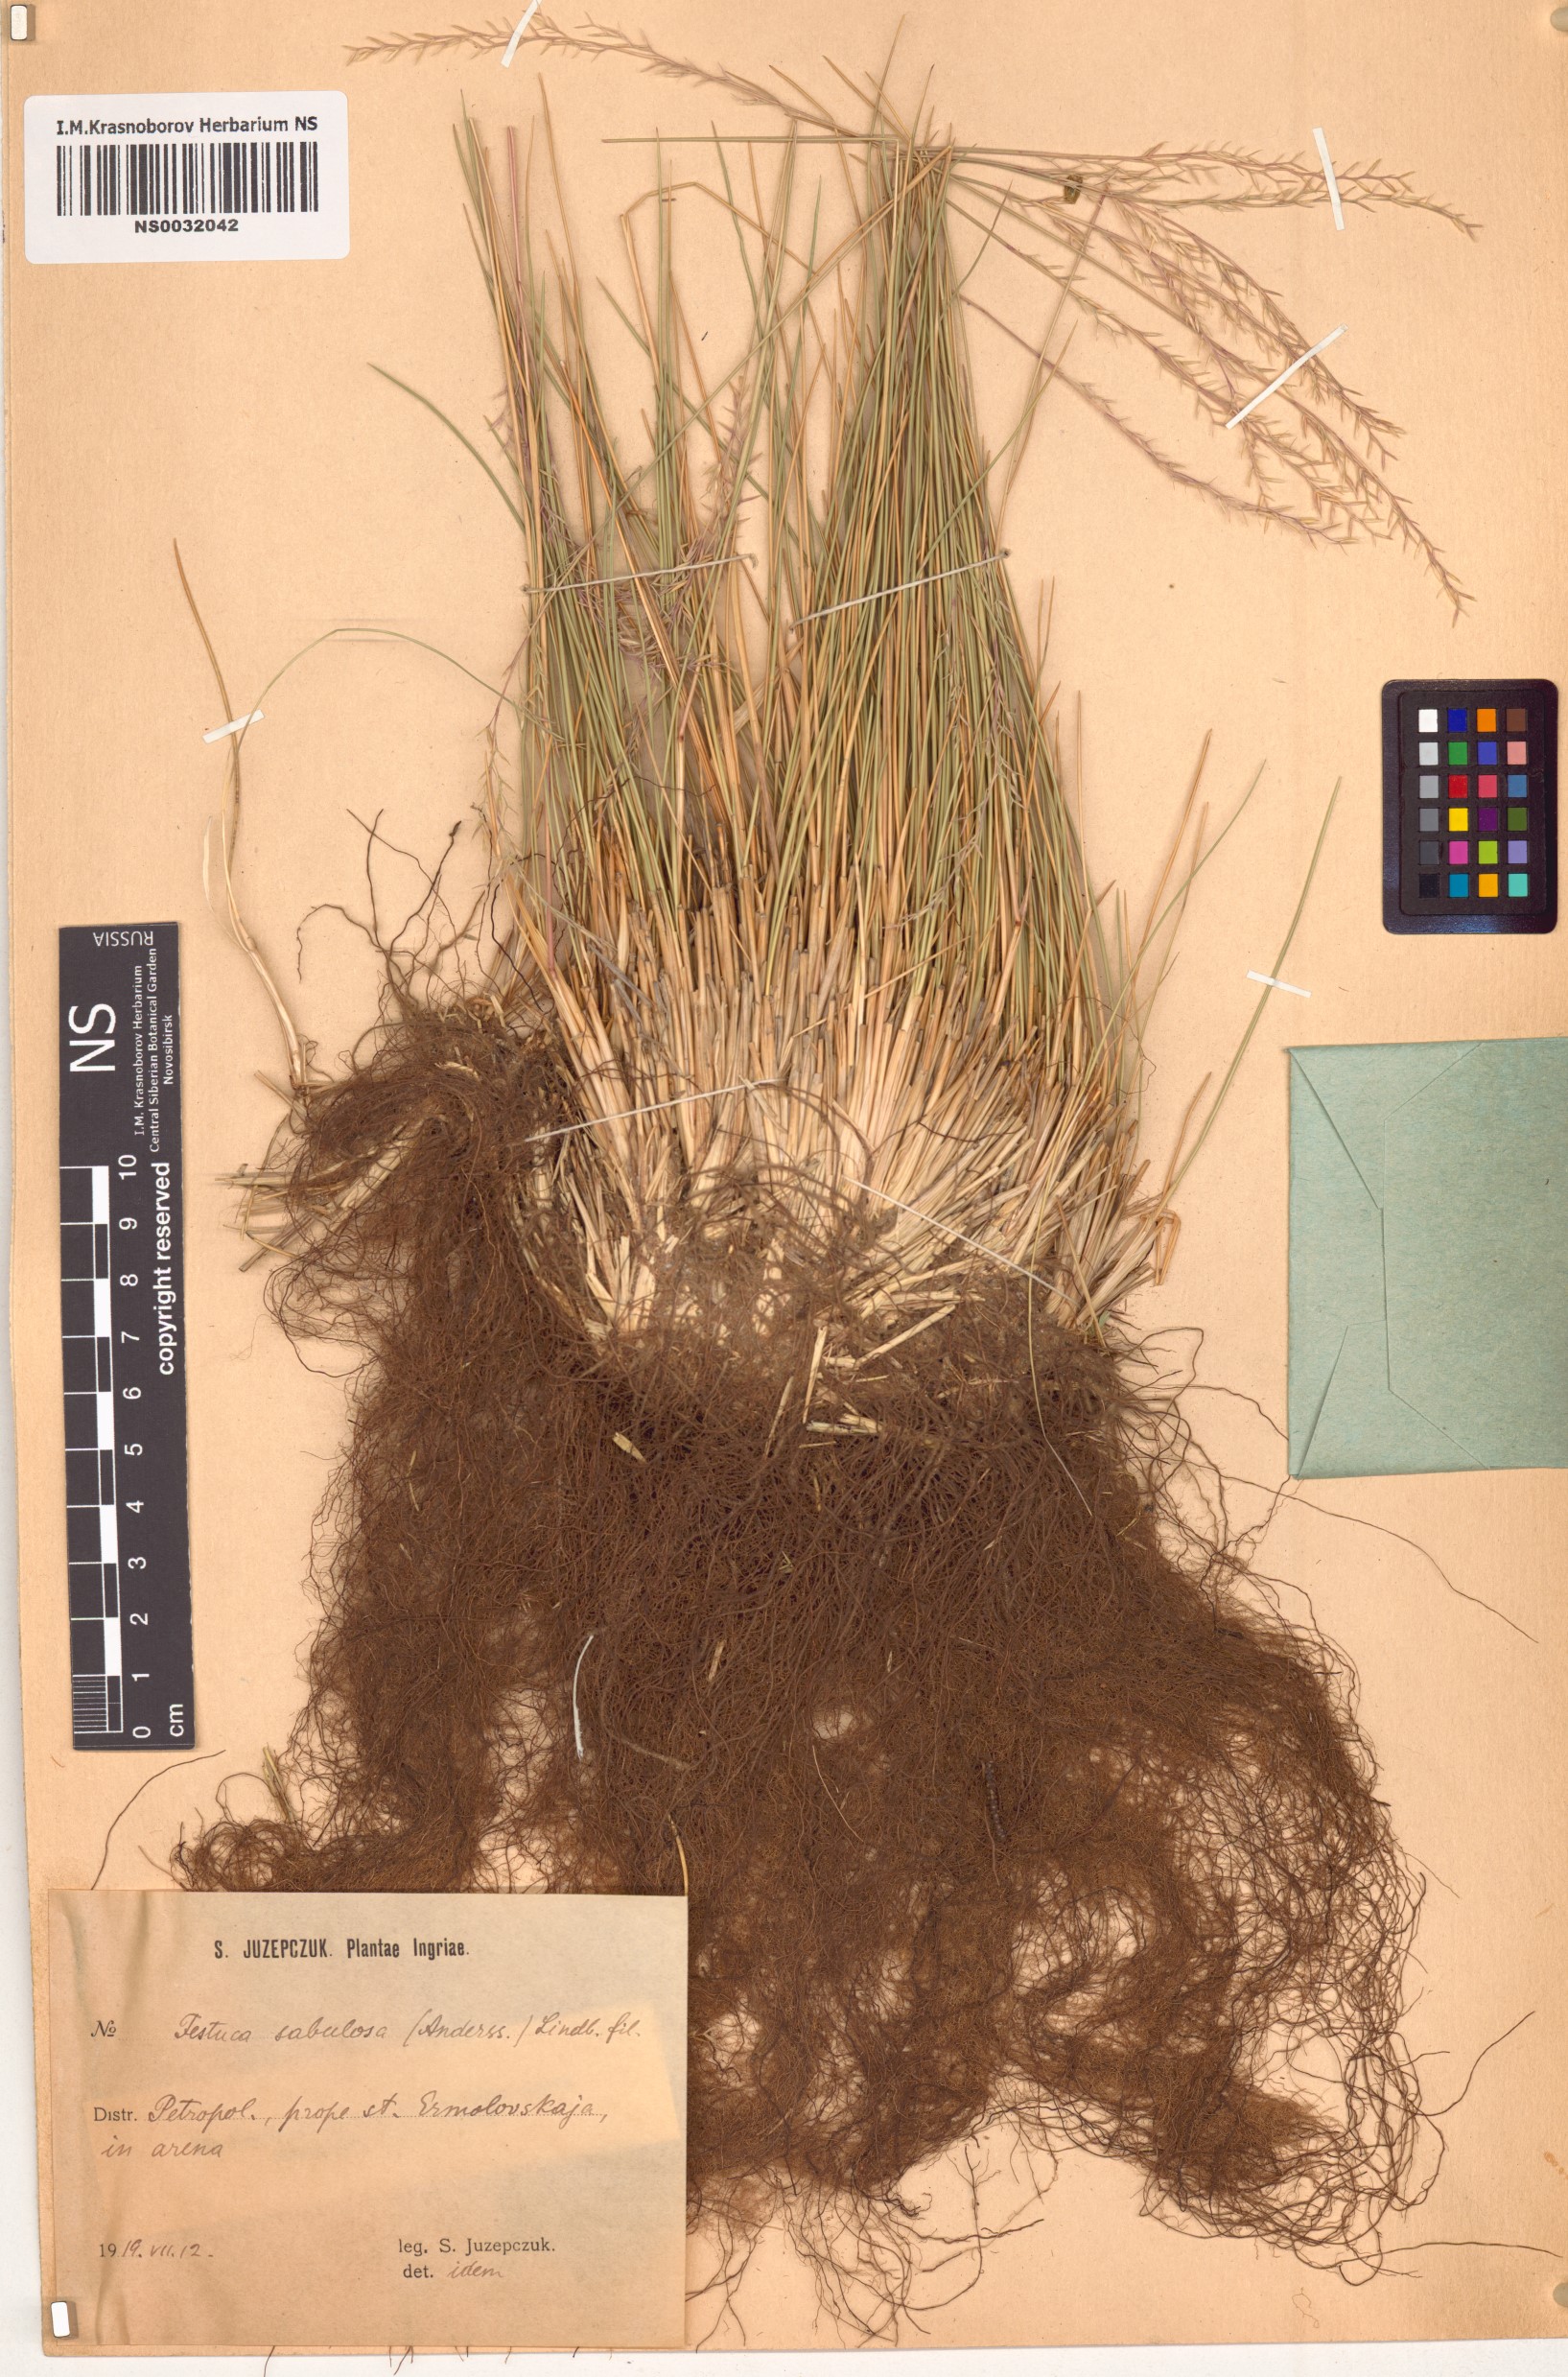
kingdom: Plantae
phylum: Tracheophyta
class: Liliopsida
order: Poales
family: Poaceae
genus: Festuca
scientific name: Festuca beckeri
